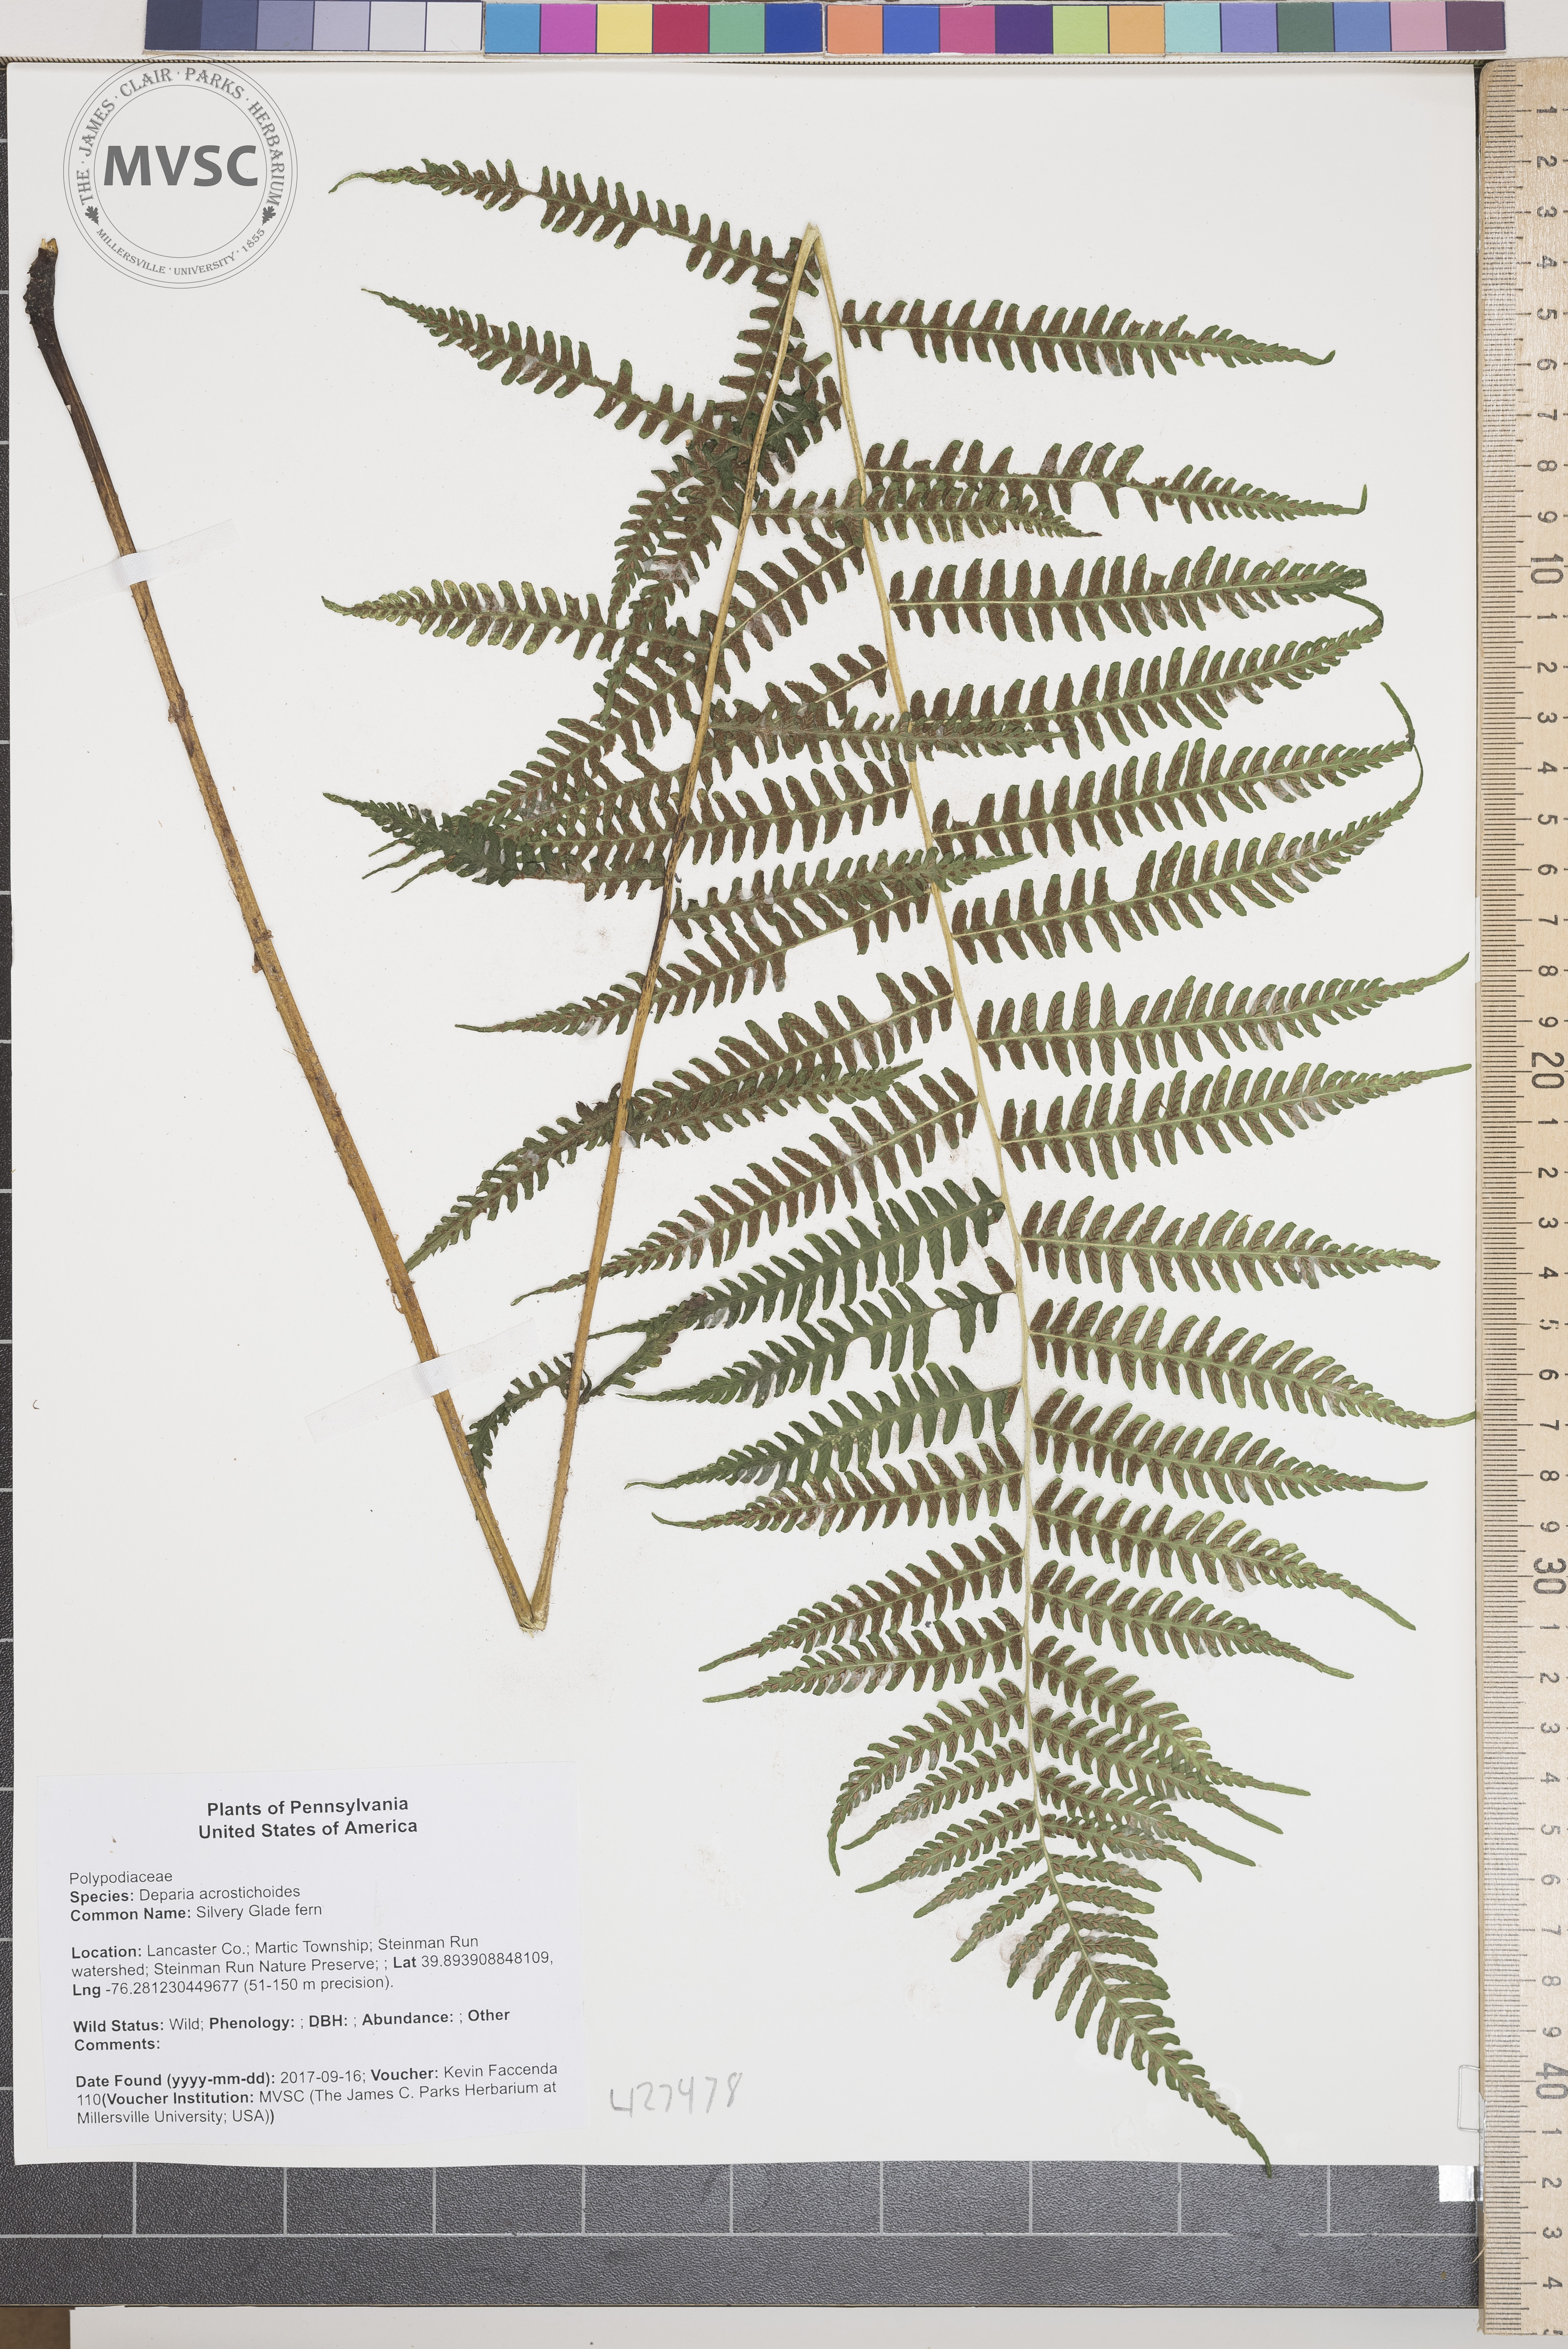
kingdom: Plantae
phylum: Tracheophyta
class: Polypodiopsida
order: Polypodiales
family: Athyriaceae
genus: Deparia
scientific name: Deparia acrostichoides
